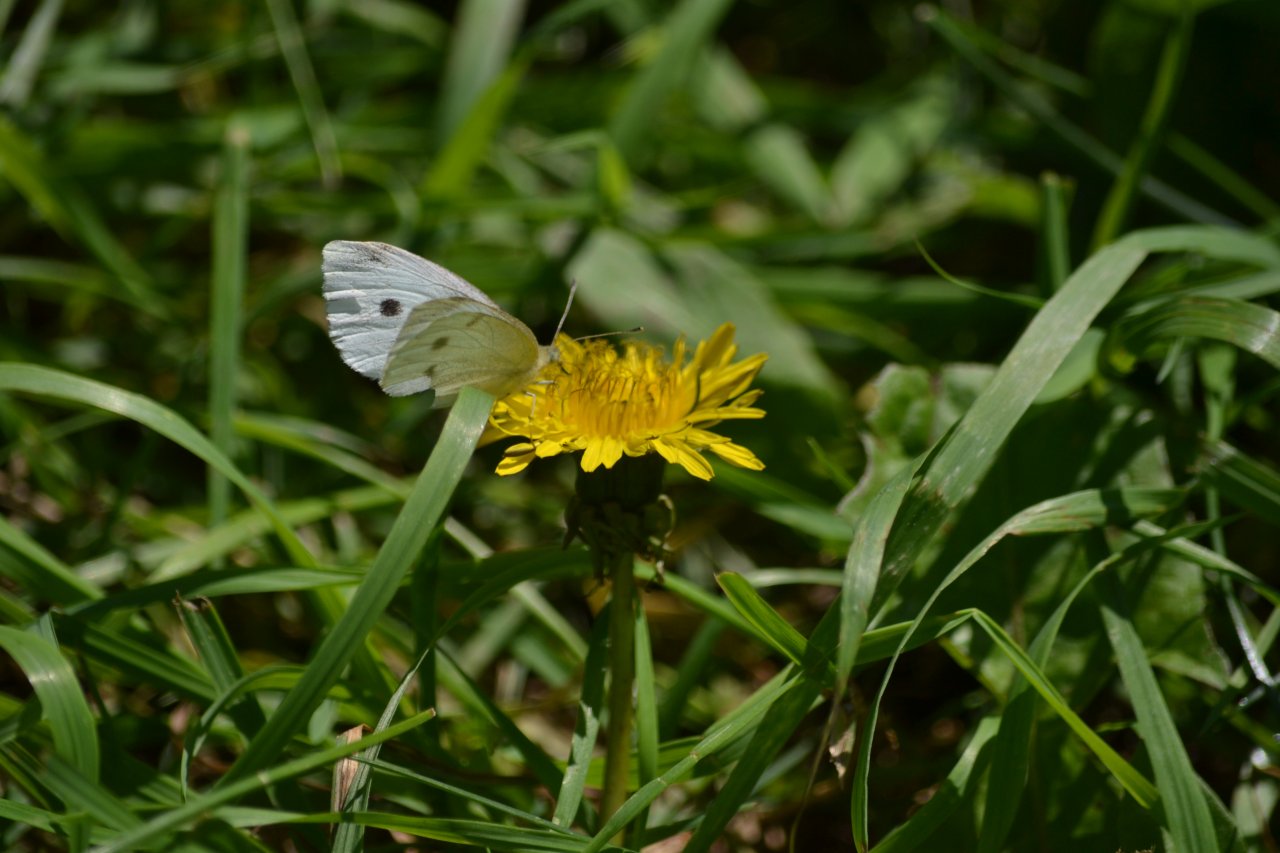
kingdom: Animalia
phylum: Arthropoda
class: Insecta
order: Lepidoptera
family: Pieridae
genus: Pieris
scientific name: Pieris rapae
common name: Cabbage White
